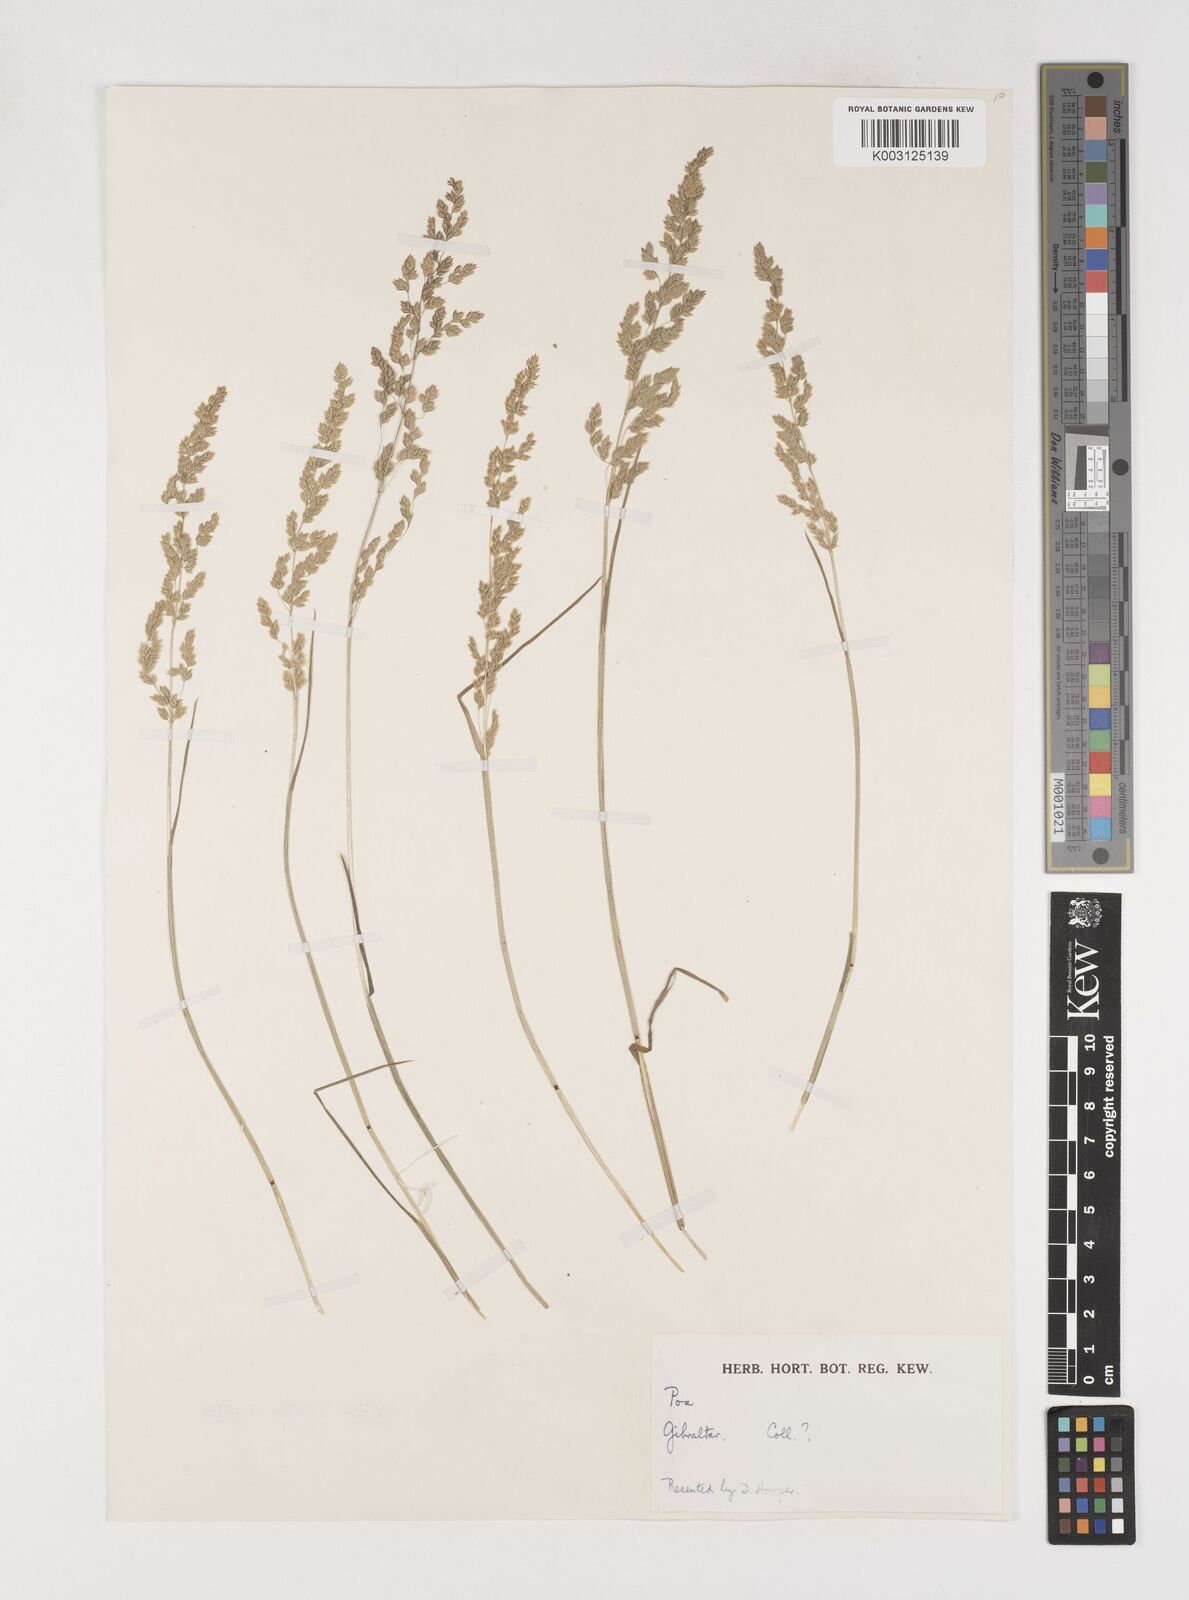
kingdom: Plantae
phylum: Tracheophyta
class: Liliopsida
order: Poales
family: Poaceae
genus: Poa
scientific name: Poa trivialis
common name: Rough bluegrass
